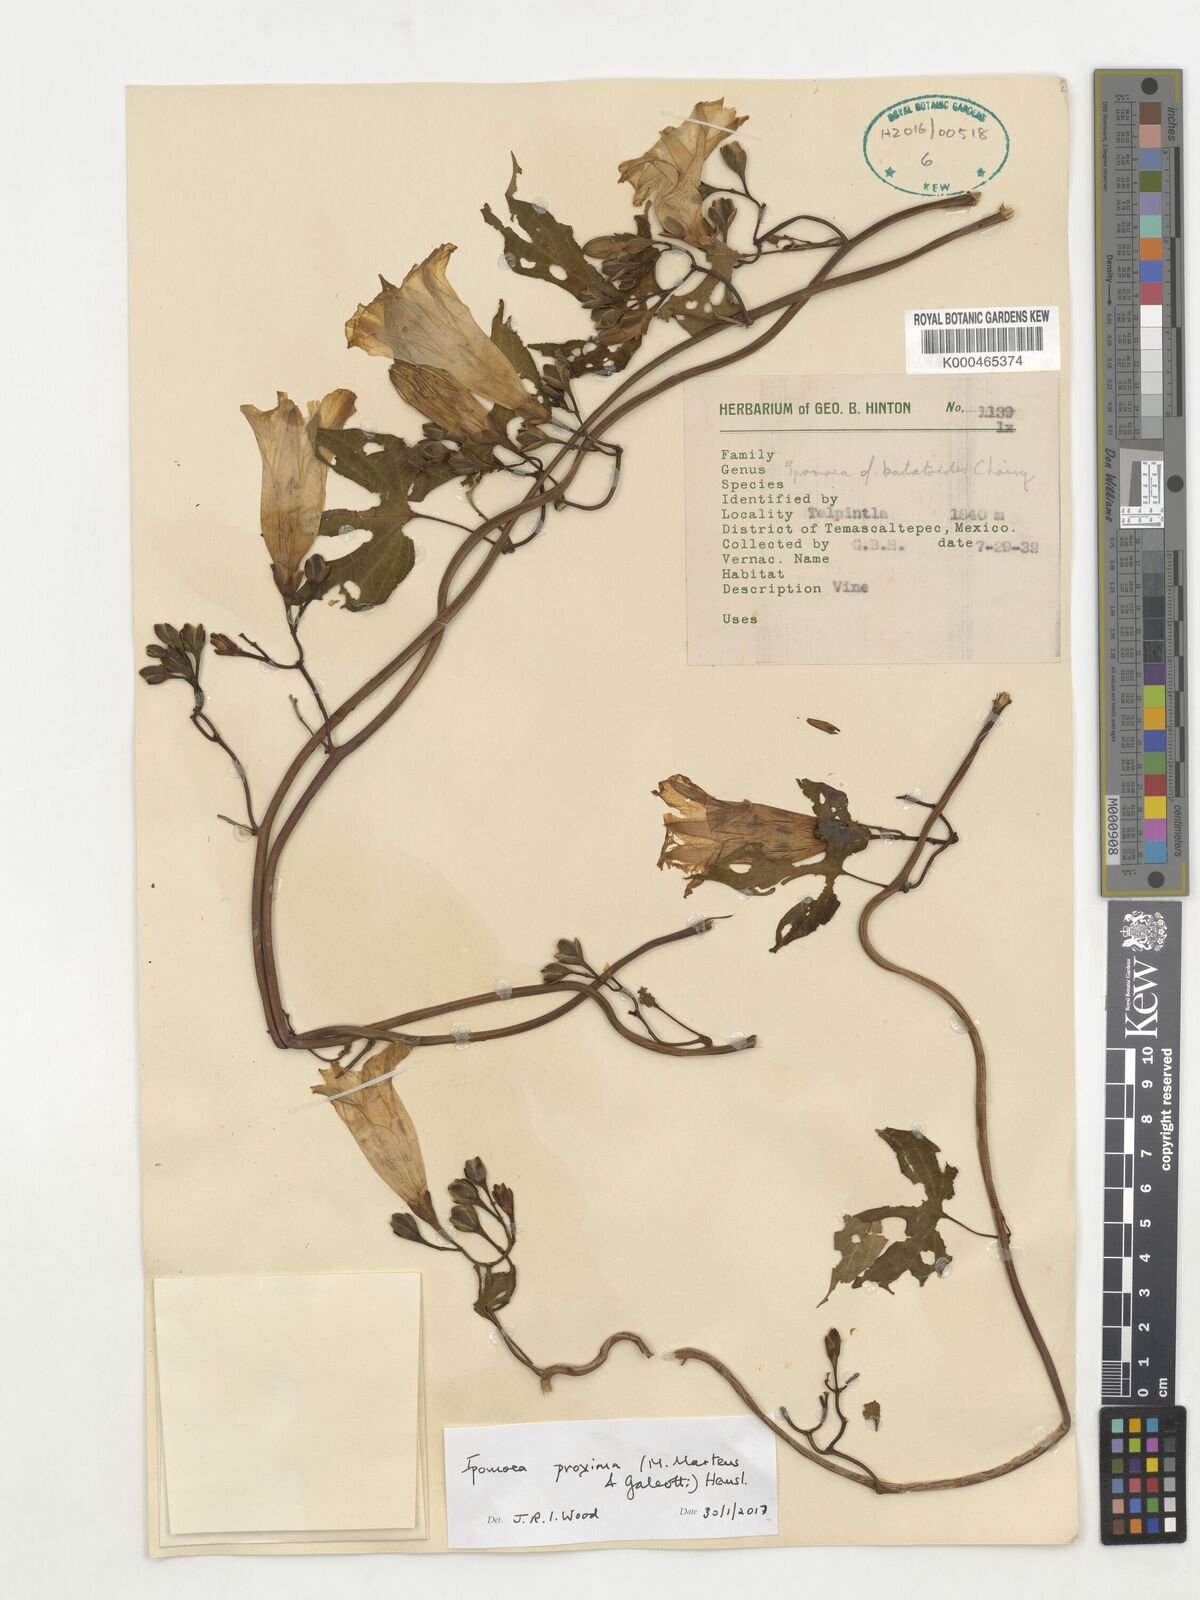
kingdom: Plantae
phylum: Tracheophyta
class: Magnoliopsida
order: Solanales
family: Convolvulaceae
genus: Ipomoea
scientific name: Ipomoea proxima
